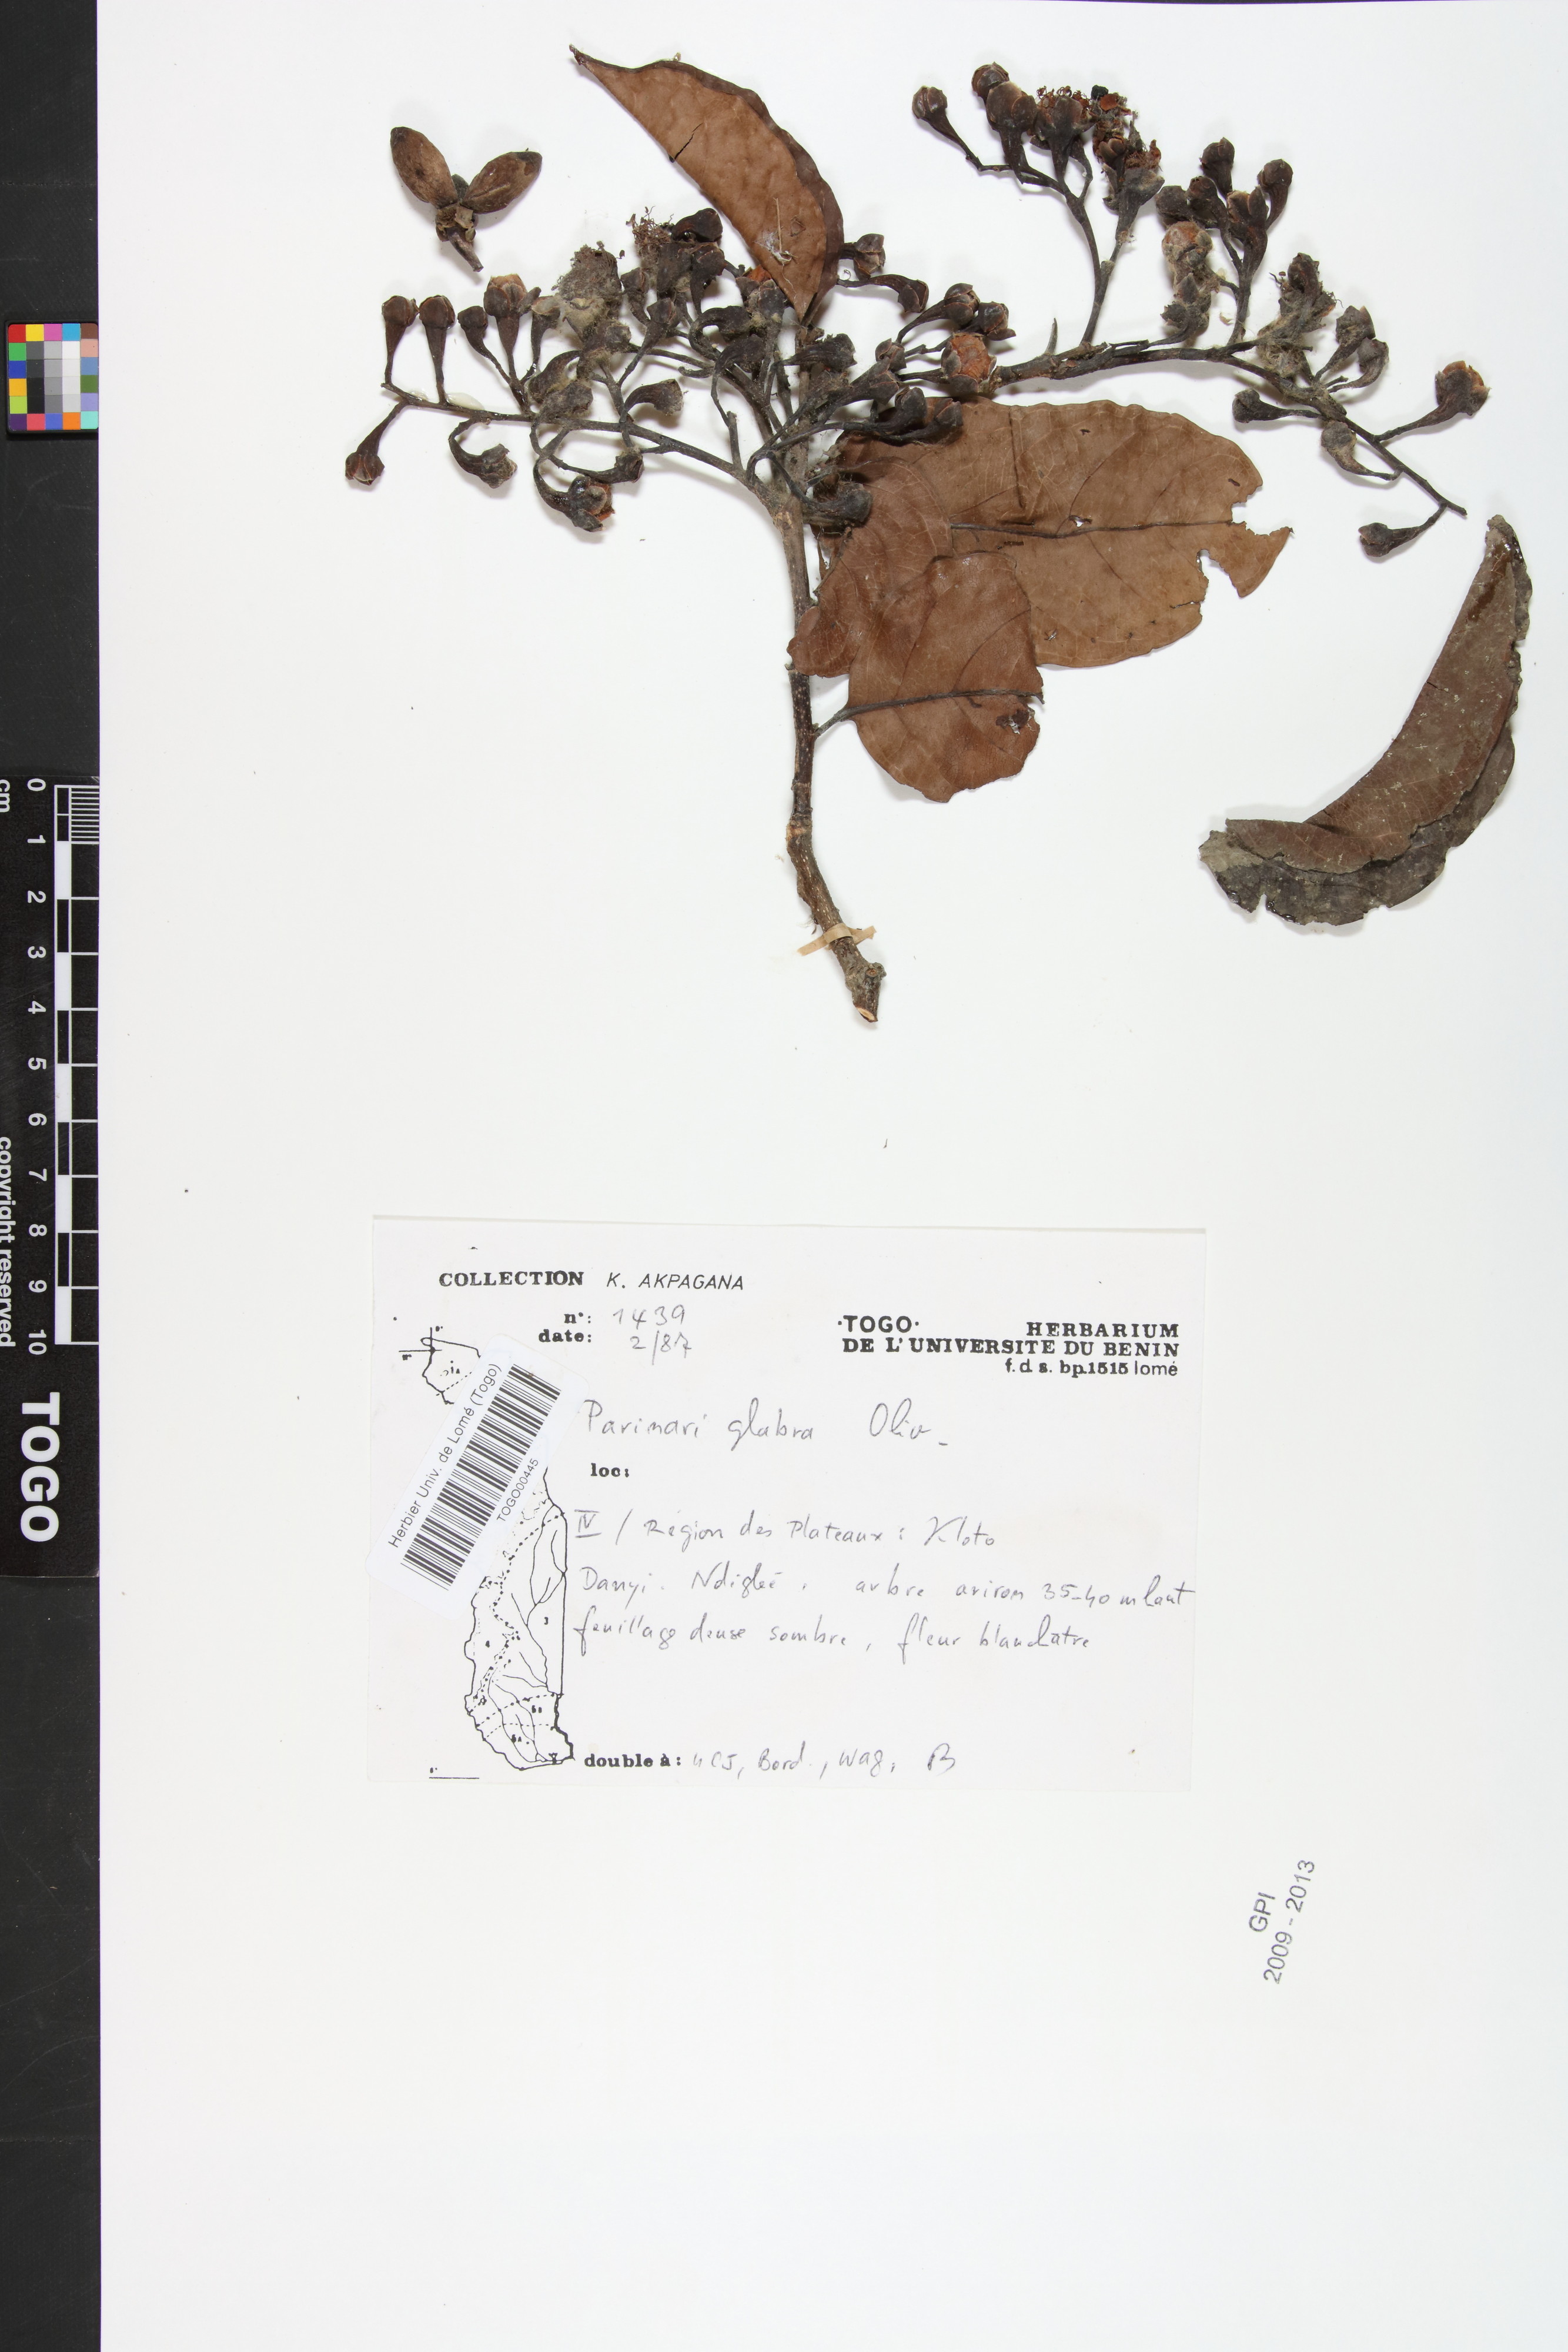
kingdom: Plantae
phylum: Tracheophyta
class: Magnoliopsida
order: Malpighiales
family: Chrysobalanaceae
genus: Maranthes
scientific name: Maranthes glabra
